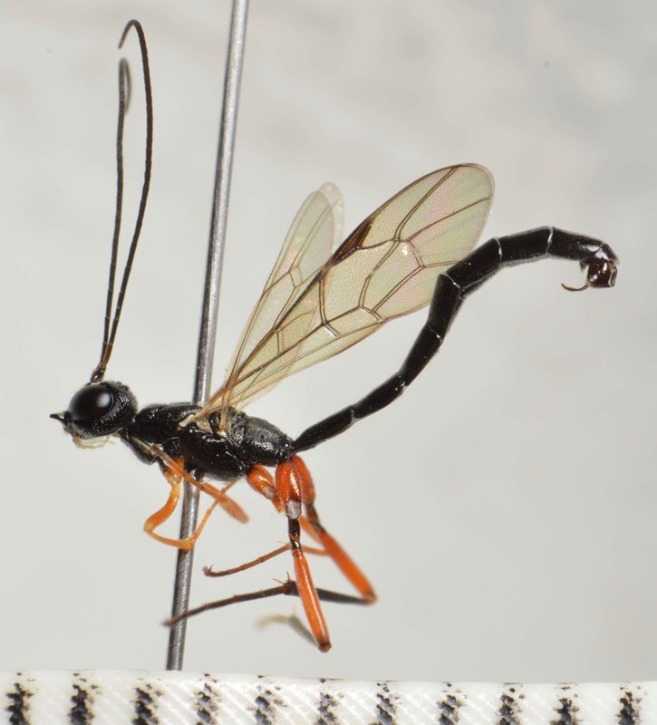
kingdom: Animalia
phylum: Arthropoda
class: Insecta
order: Hymenoptera
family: Ichneumonidae
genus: Neoxorides
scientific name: Neoxorides nitens
